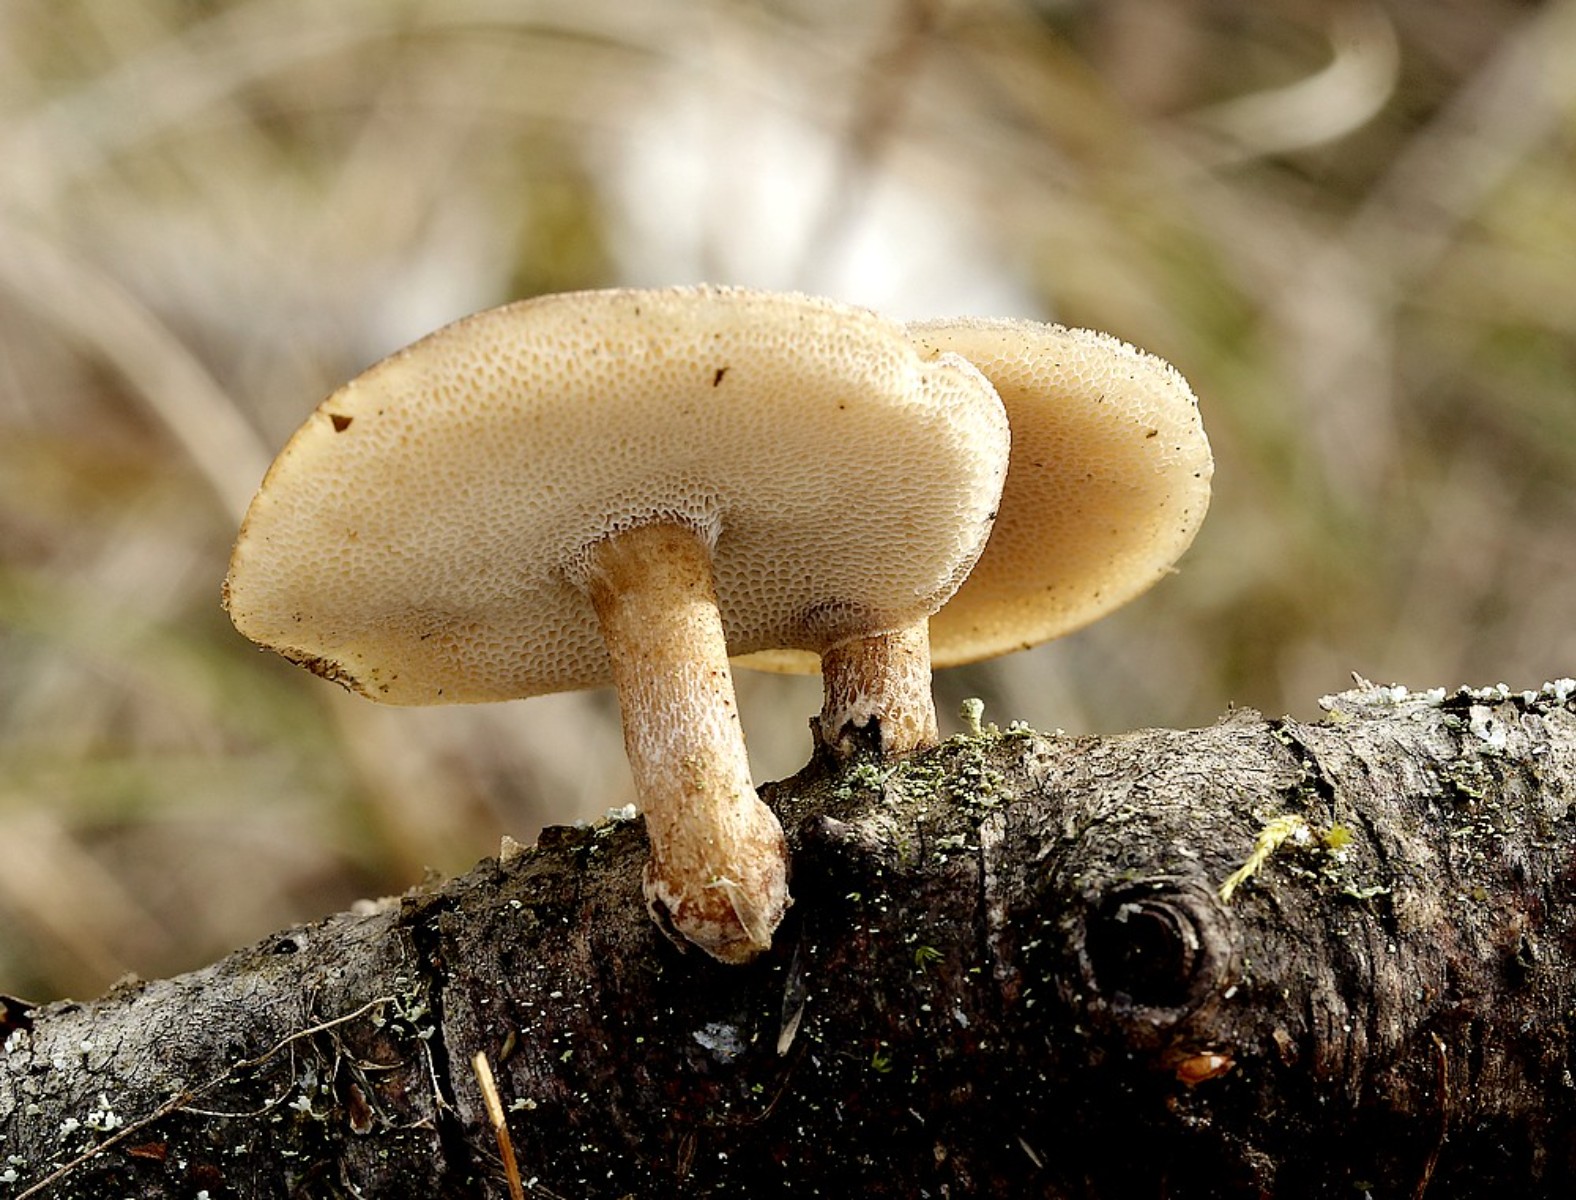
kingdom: Fungi
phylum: Basidiomycota
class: Agaricomycetes
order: Polyporales
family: Polyporaceae
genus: Lentinus
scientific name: Lentinus brumalis
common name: vinter-stilkporesvamp
